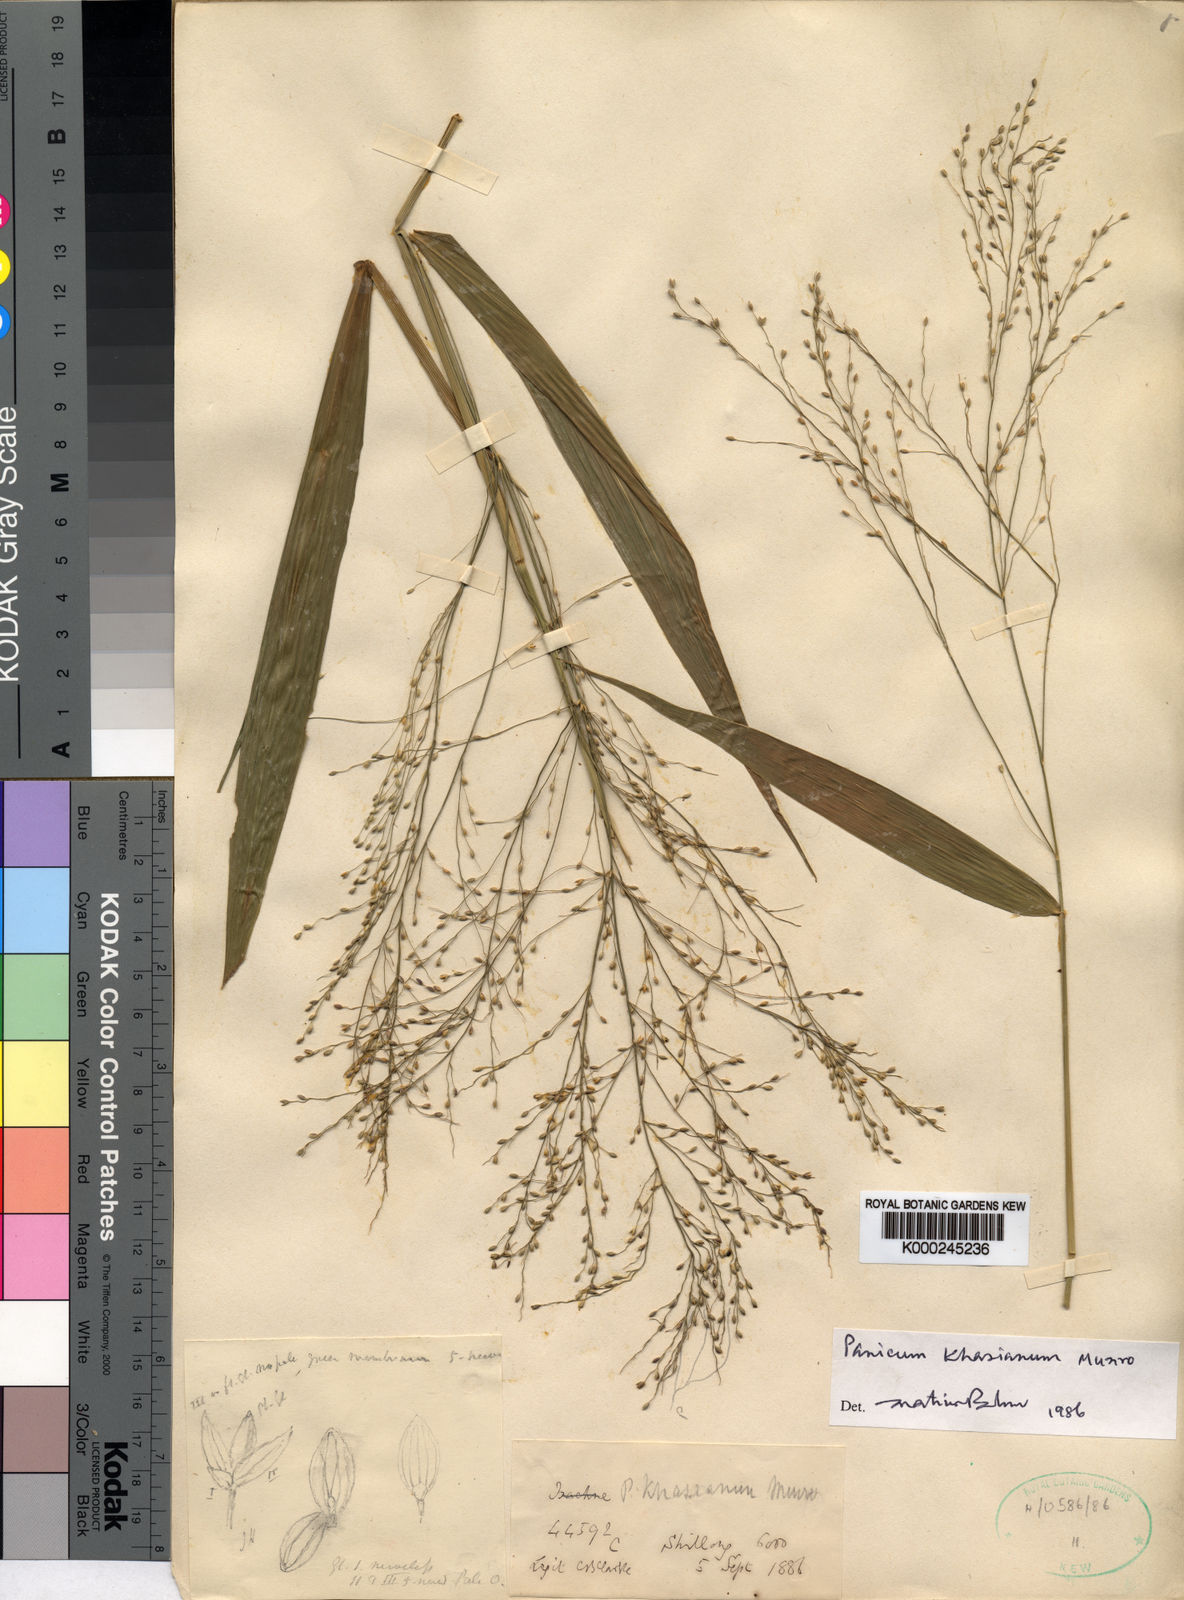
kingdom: Plantae
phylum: Tracheophyta
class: Liliopsida
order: Poales
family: Poaceae
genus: Panicum
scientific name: Panicum
